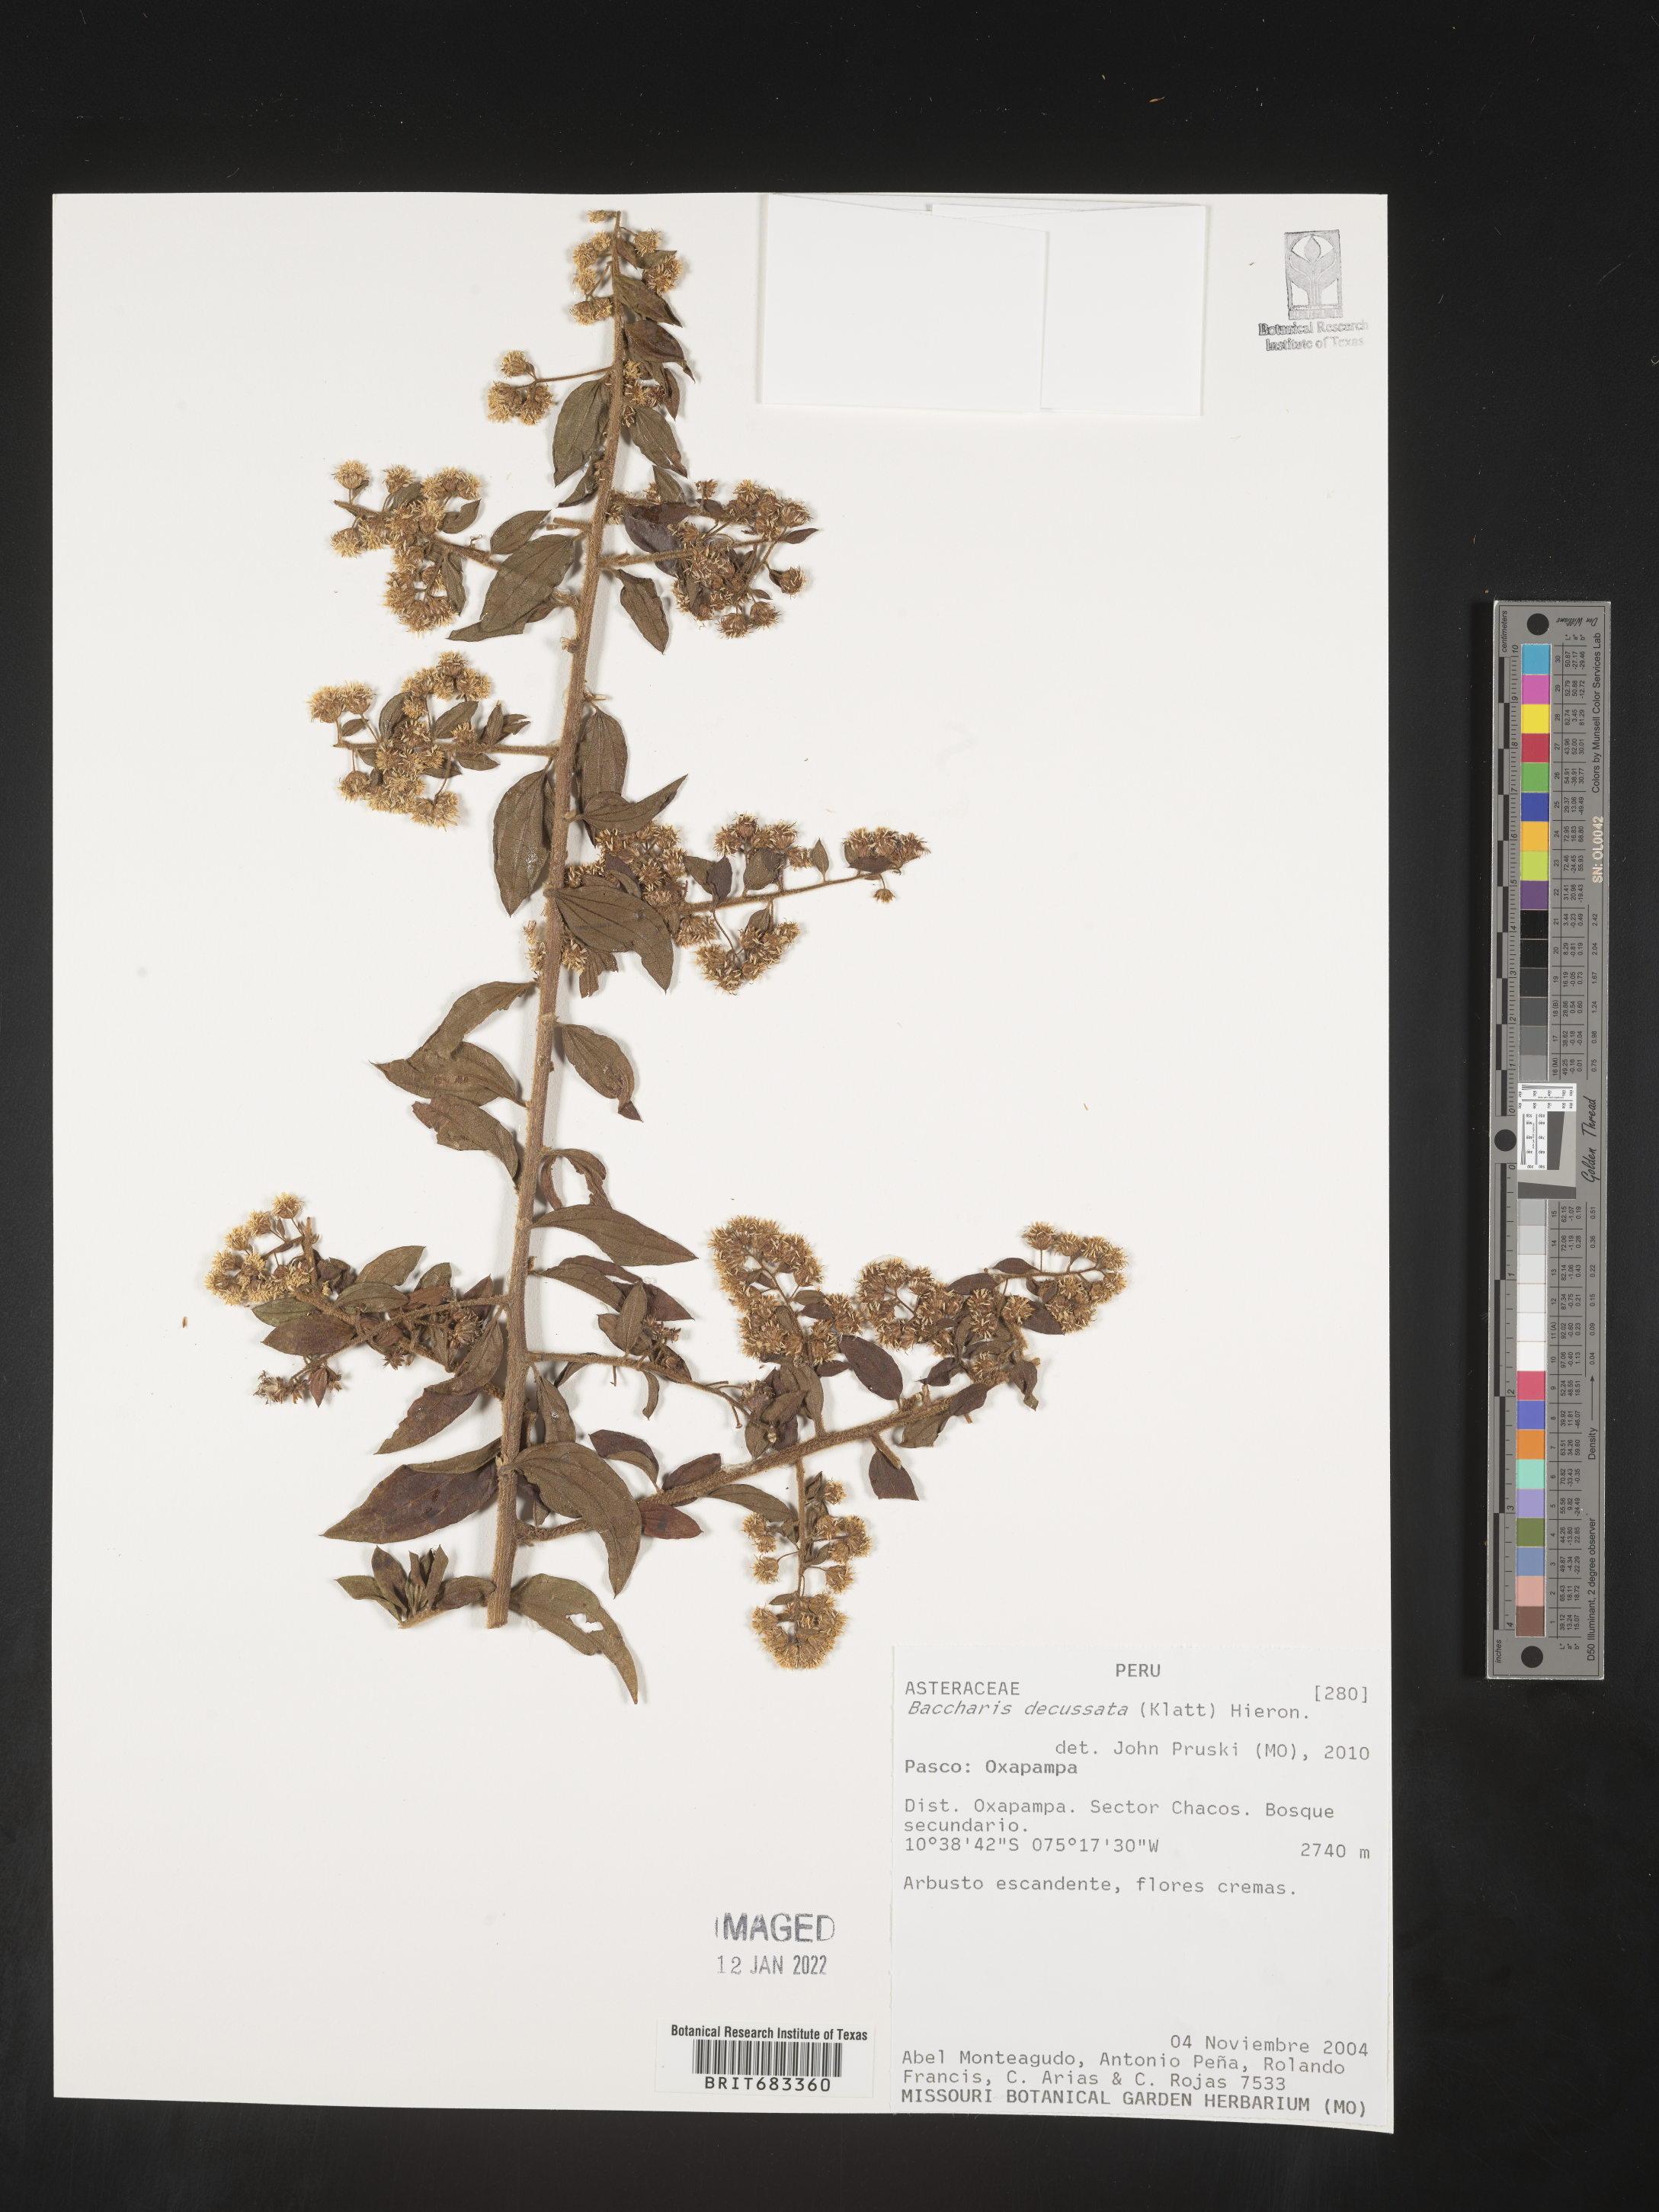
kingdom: Plantae
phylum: Tracheophyta
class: Magnoliopsida
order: Asterales
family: Asteraceae
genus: Baccharis
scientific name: Baccharis
